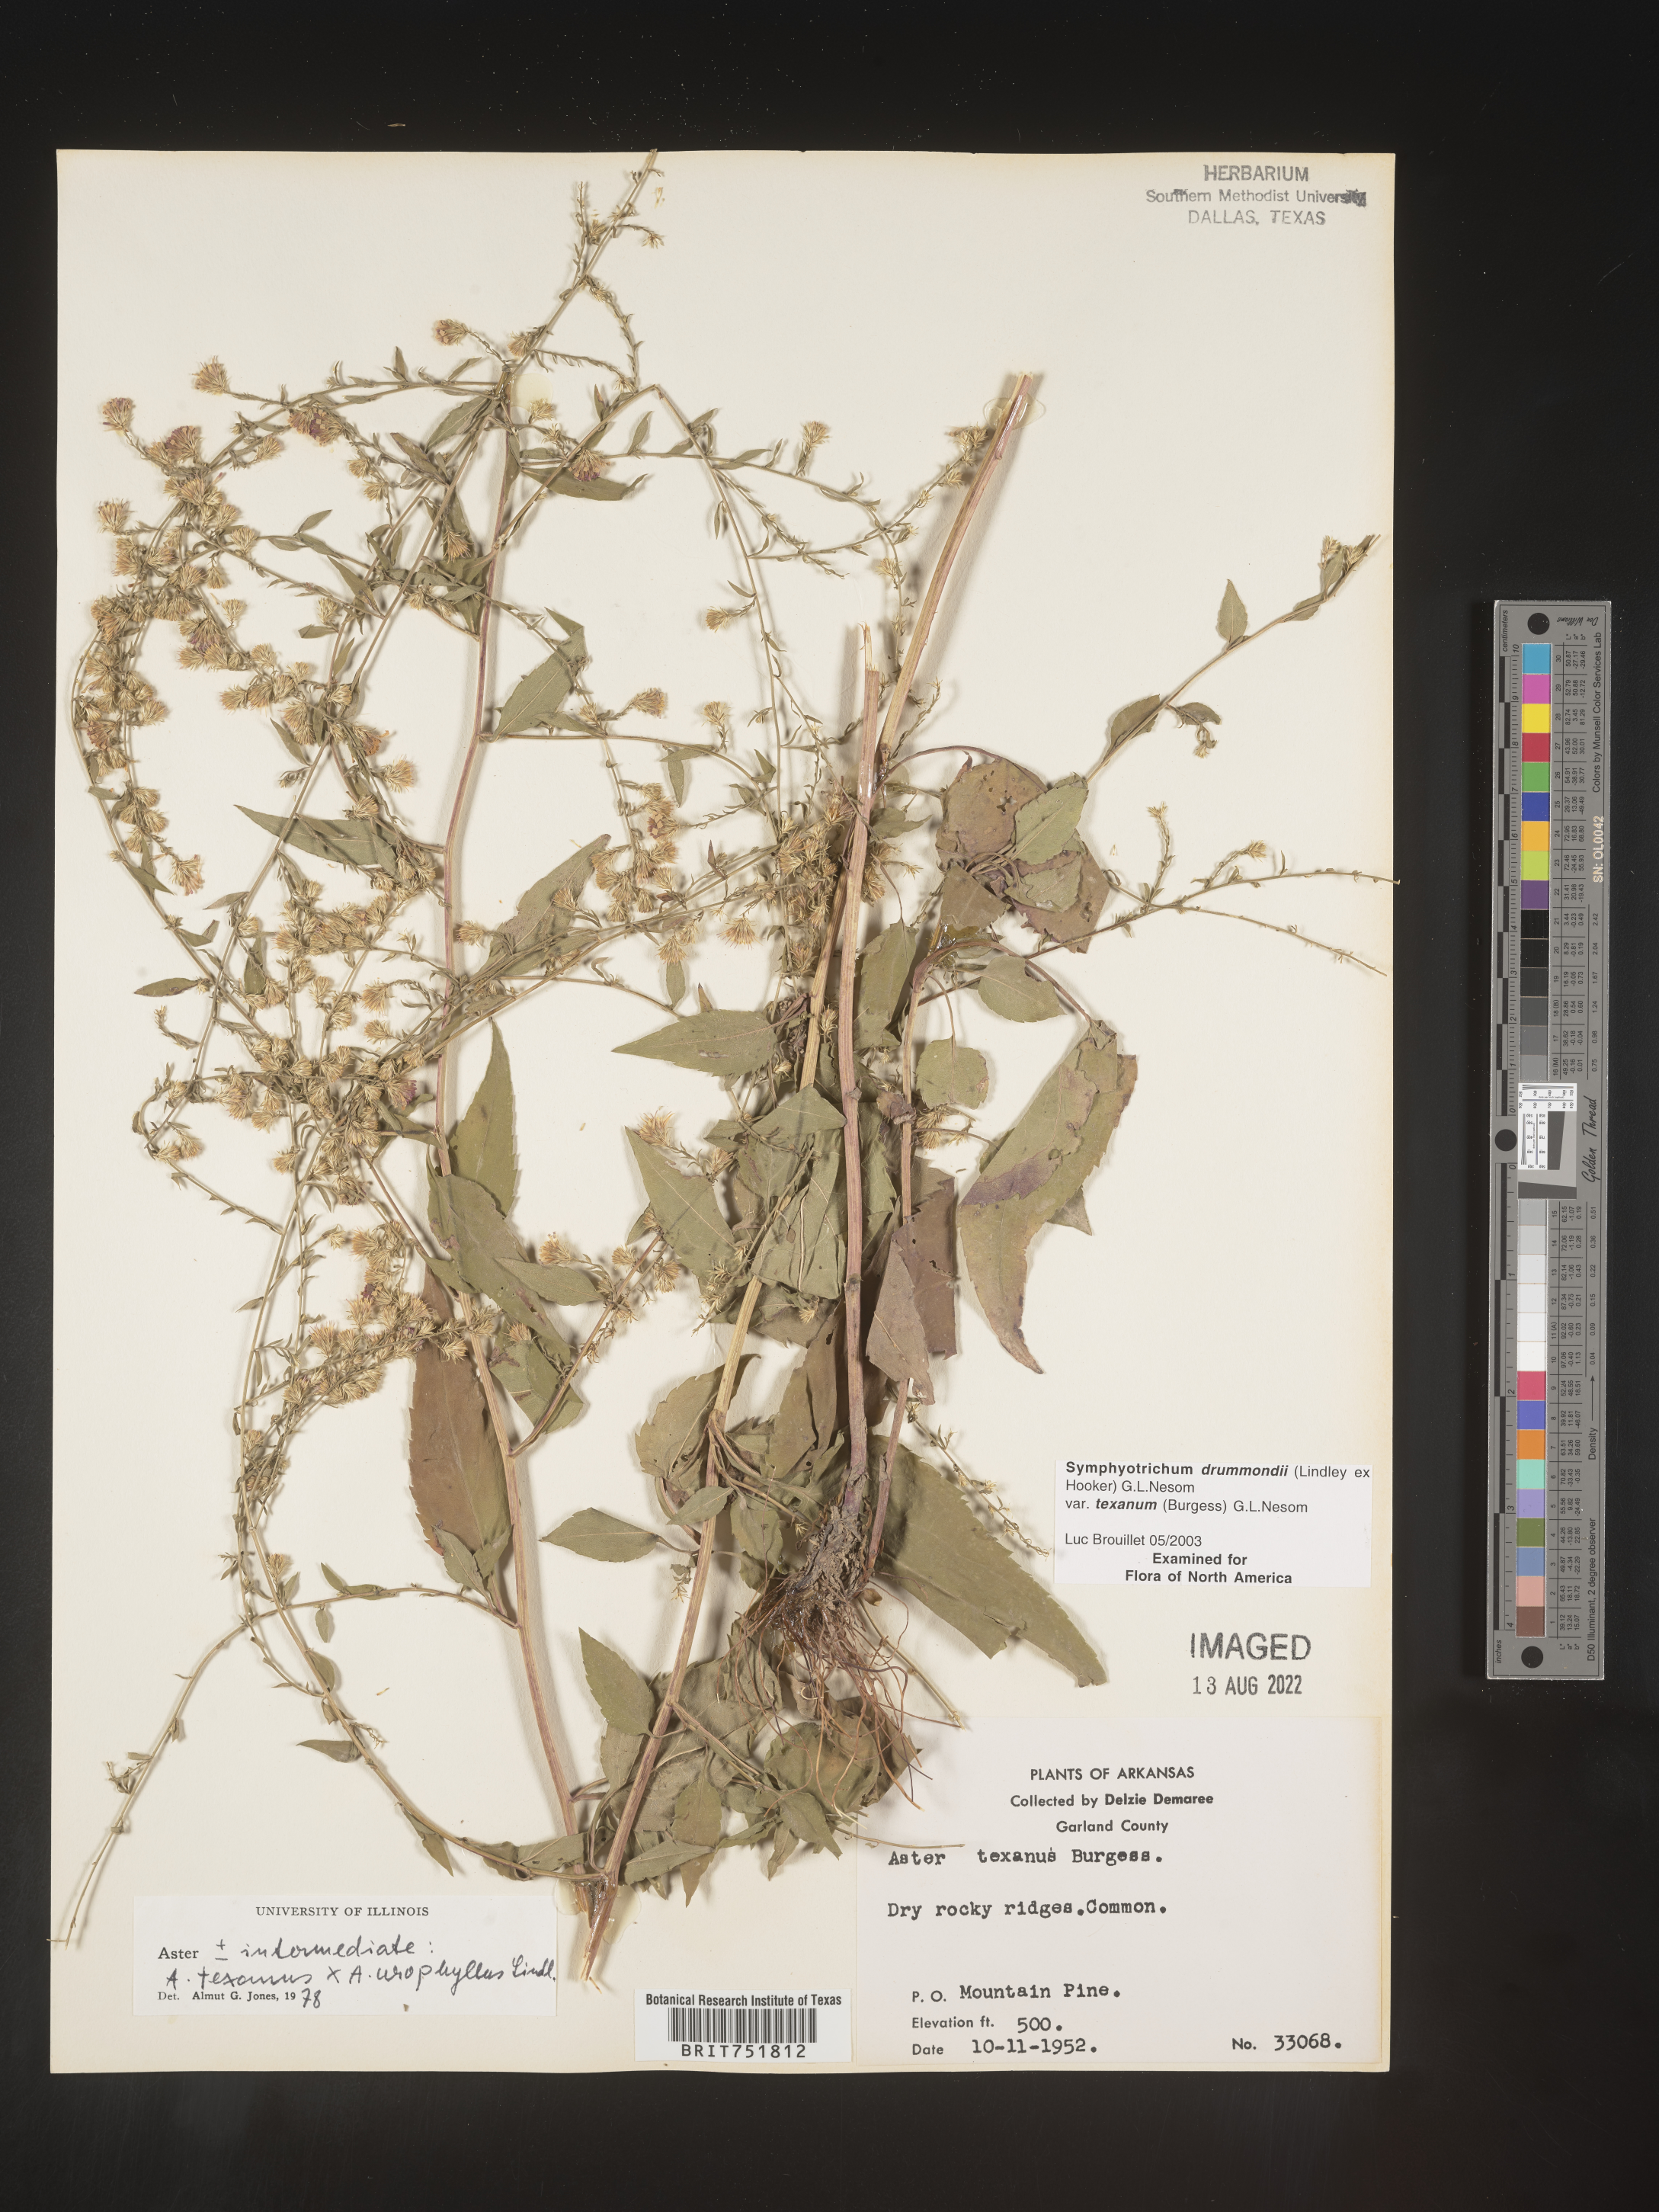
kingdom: Plantae
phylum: Tracheophyta
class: Magnoliopsida
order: Asterales
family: Asteraceae
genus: Symphyotrichum
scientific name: Symphyotrichum drummondii
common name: Drummond's aster
